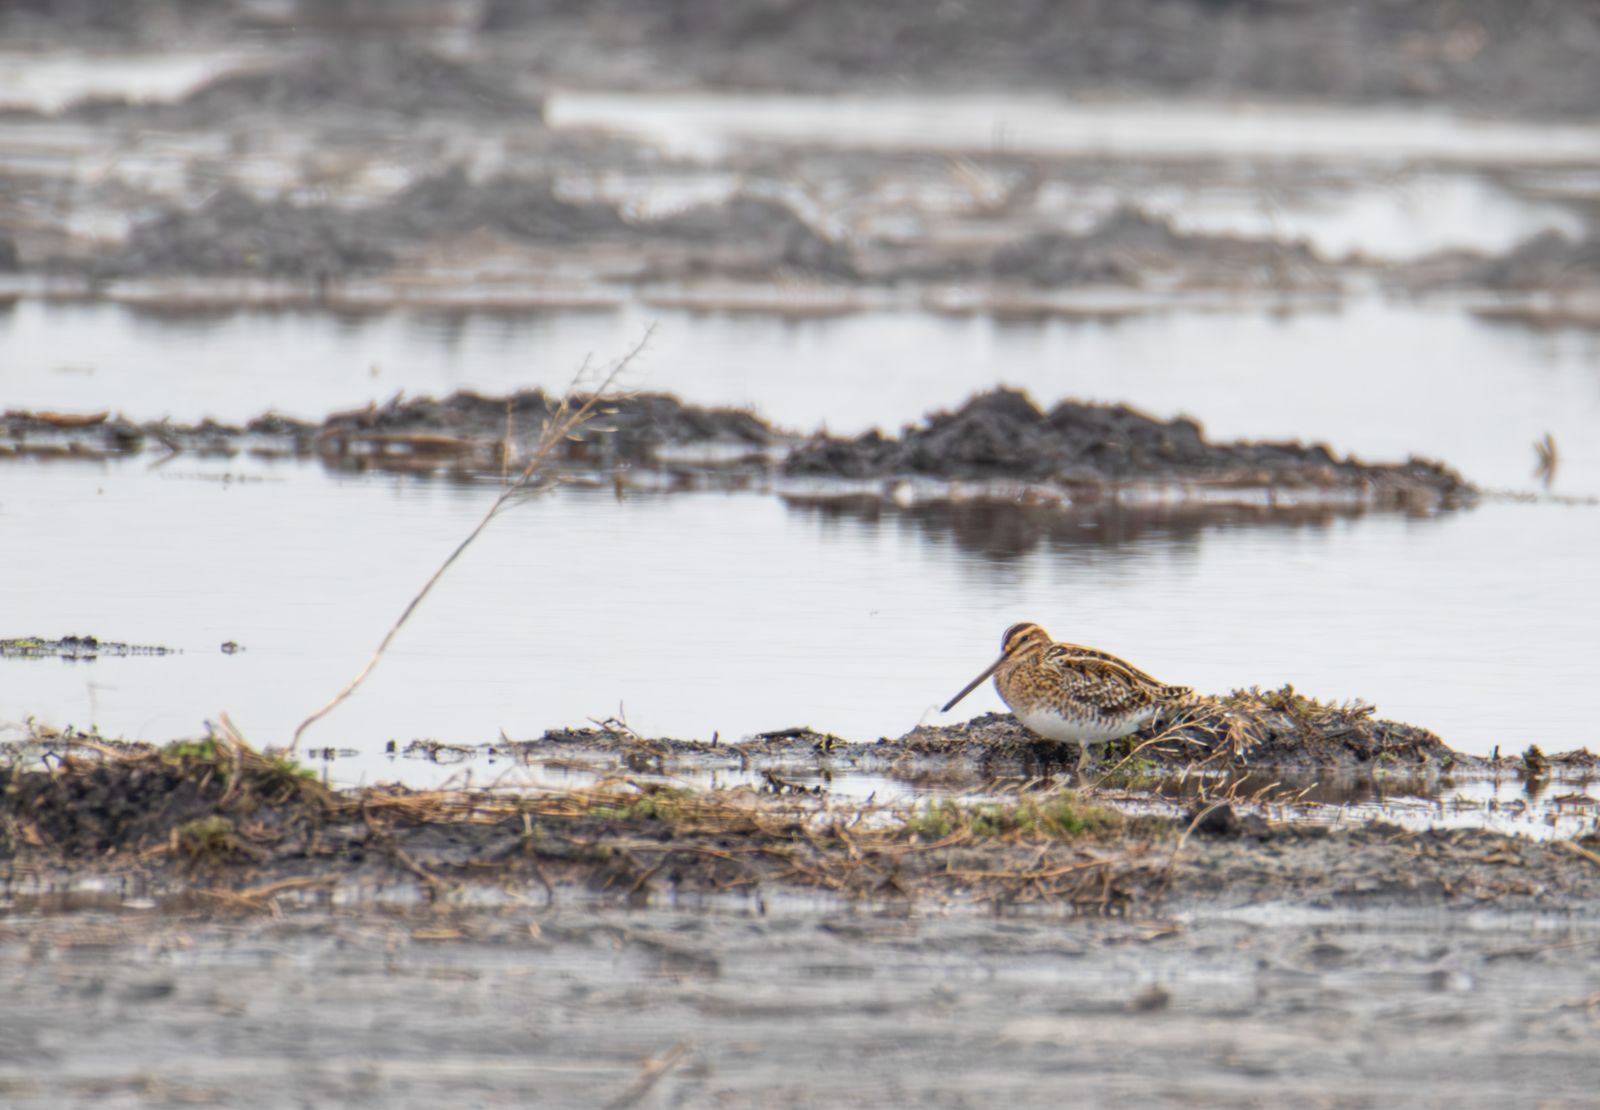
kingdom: Animalia
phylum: Chordata
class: Aves
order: Charadriiformes
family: Scolopacidae
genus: Gallinago
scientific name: Gallinago gallinago
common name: Common snipe
